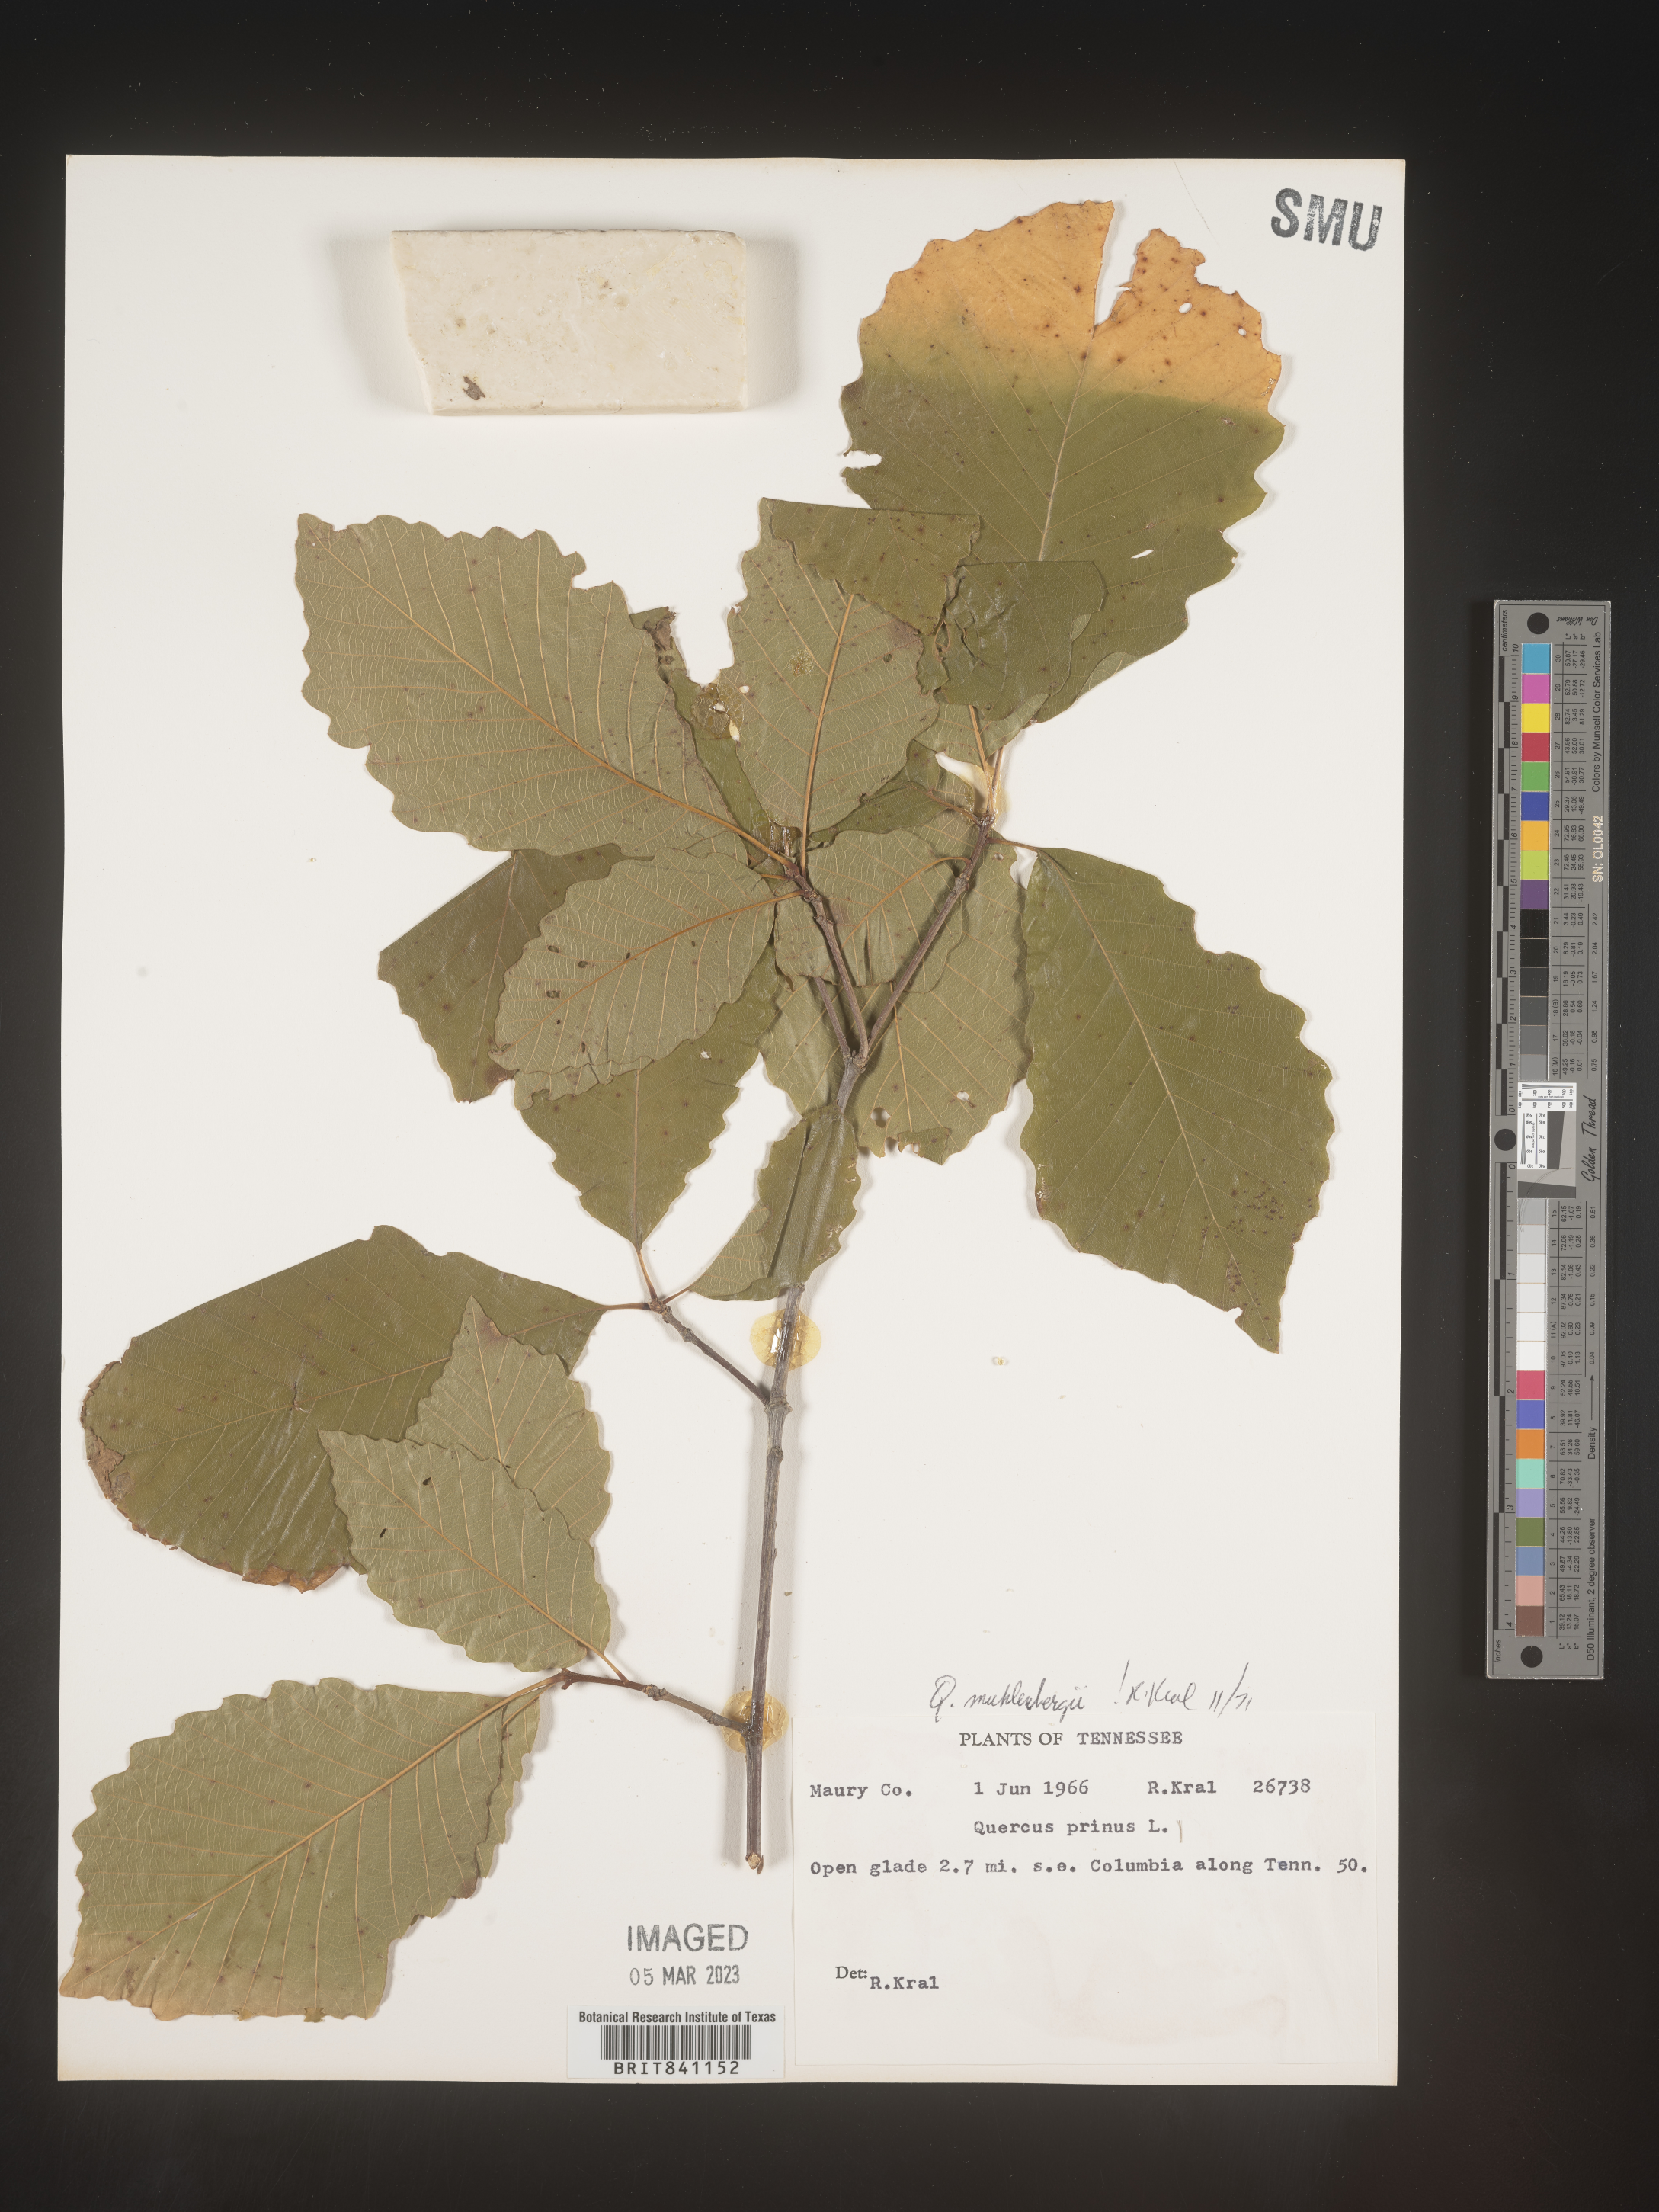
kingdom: Plantae
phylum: Tracheophyta
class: Magnoliopsida
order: Fagales
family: Fagaceae
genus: Quercus
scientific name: Quercus michauxii
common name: Swamp chestnut oak
